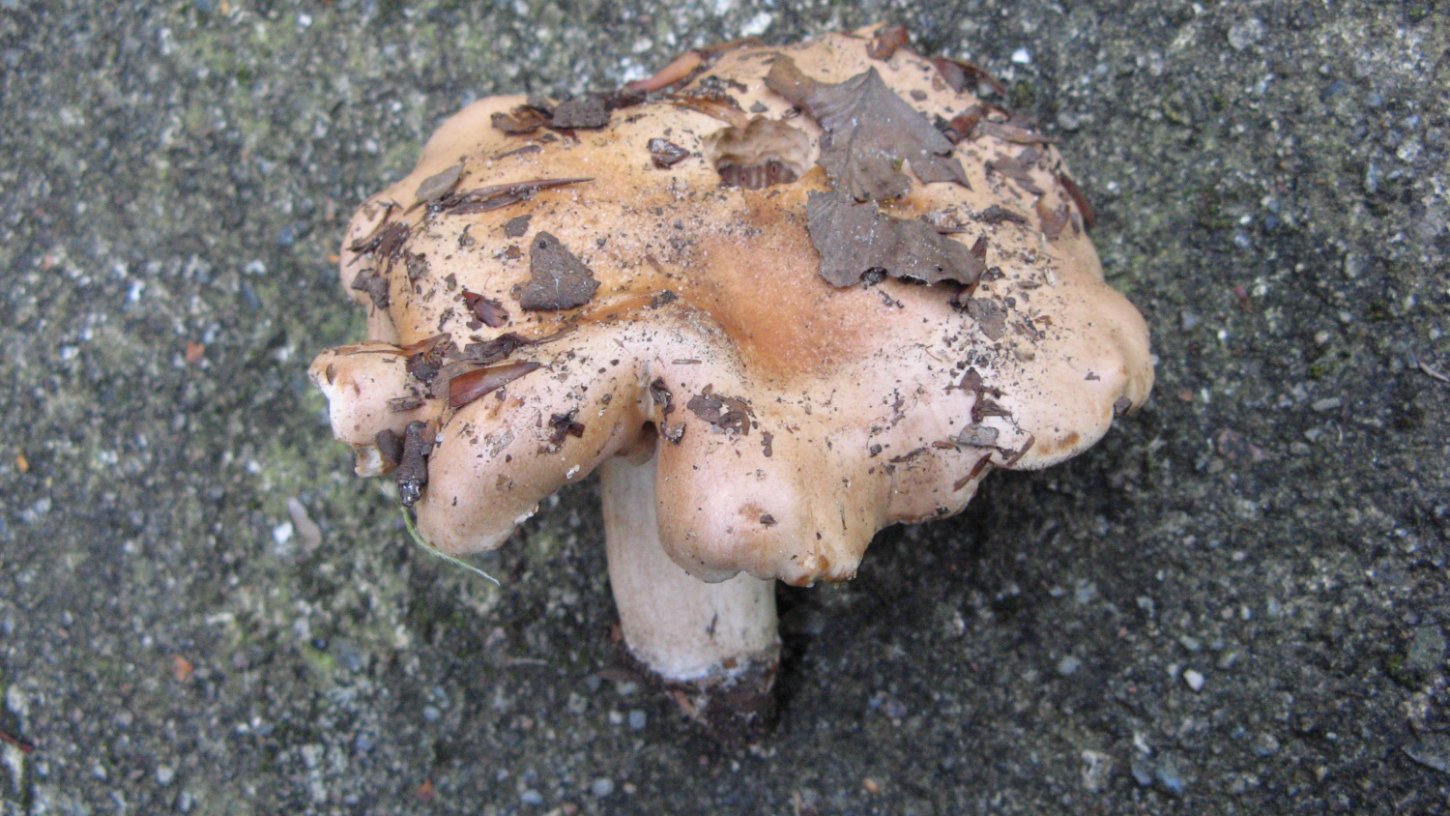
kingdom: Fungi
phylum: Basidiomycota
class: Agaricomycetes
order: Agaricales
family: Hymenogastraceae
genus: Hebeloma
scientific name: Hebeloma aestivale
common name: sommer-tåreblad
